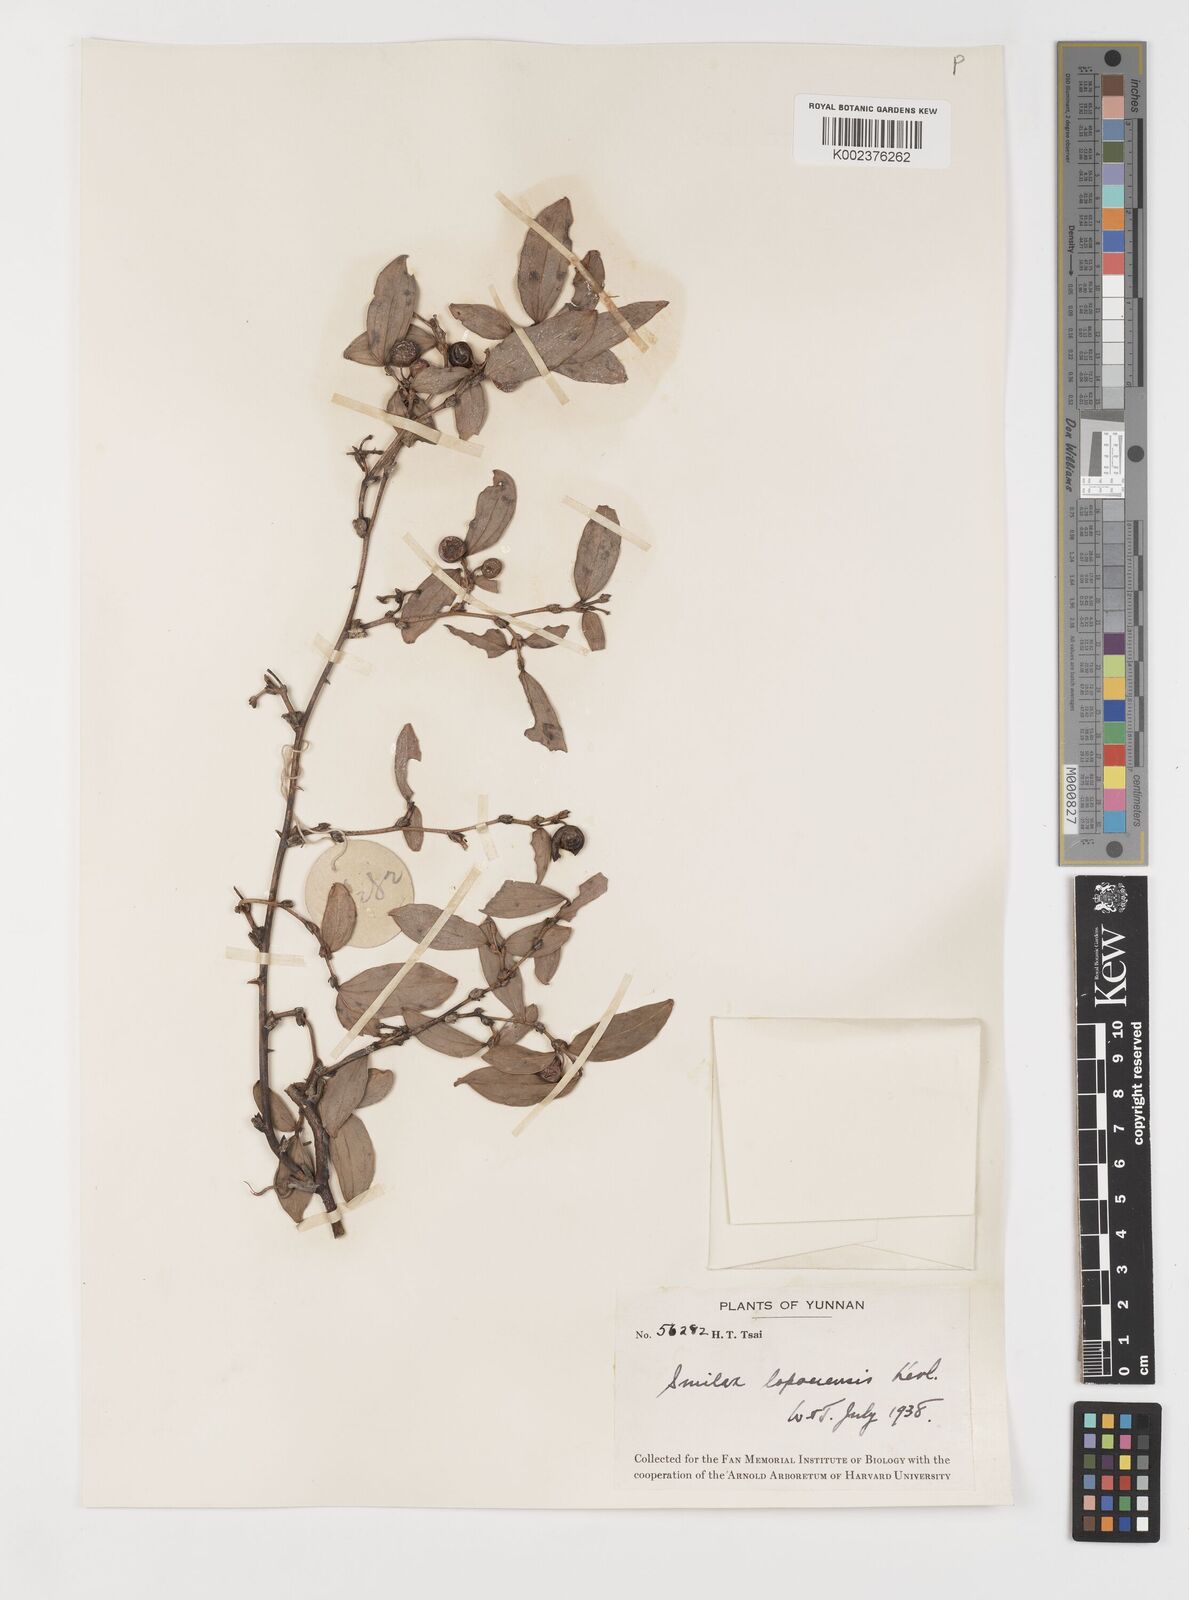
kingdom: Plantae
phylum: Tracheophyta
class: Liliopsida
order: Liliales
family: Smilacaceae
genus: Smilax
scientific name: Smilax megalantha
